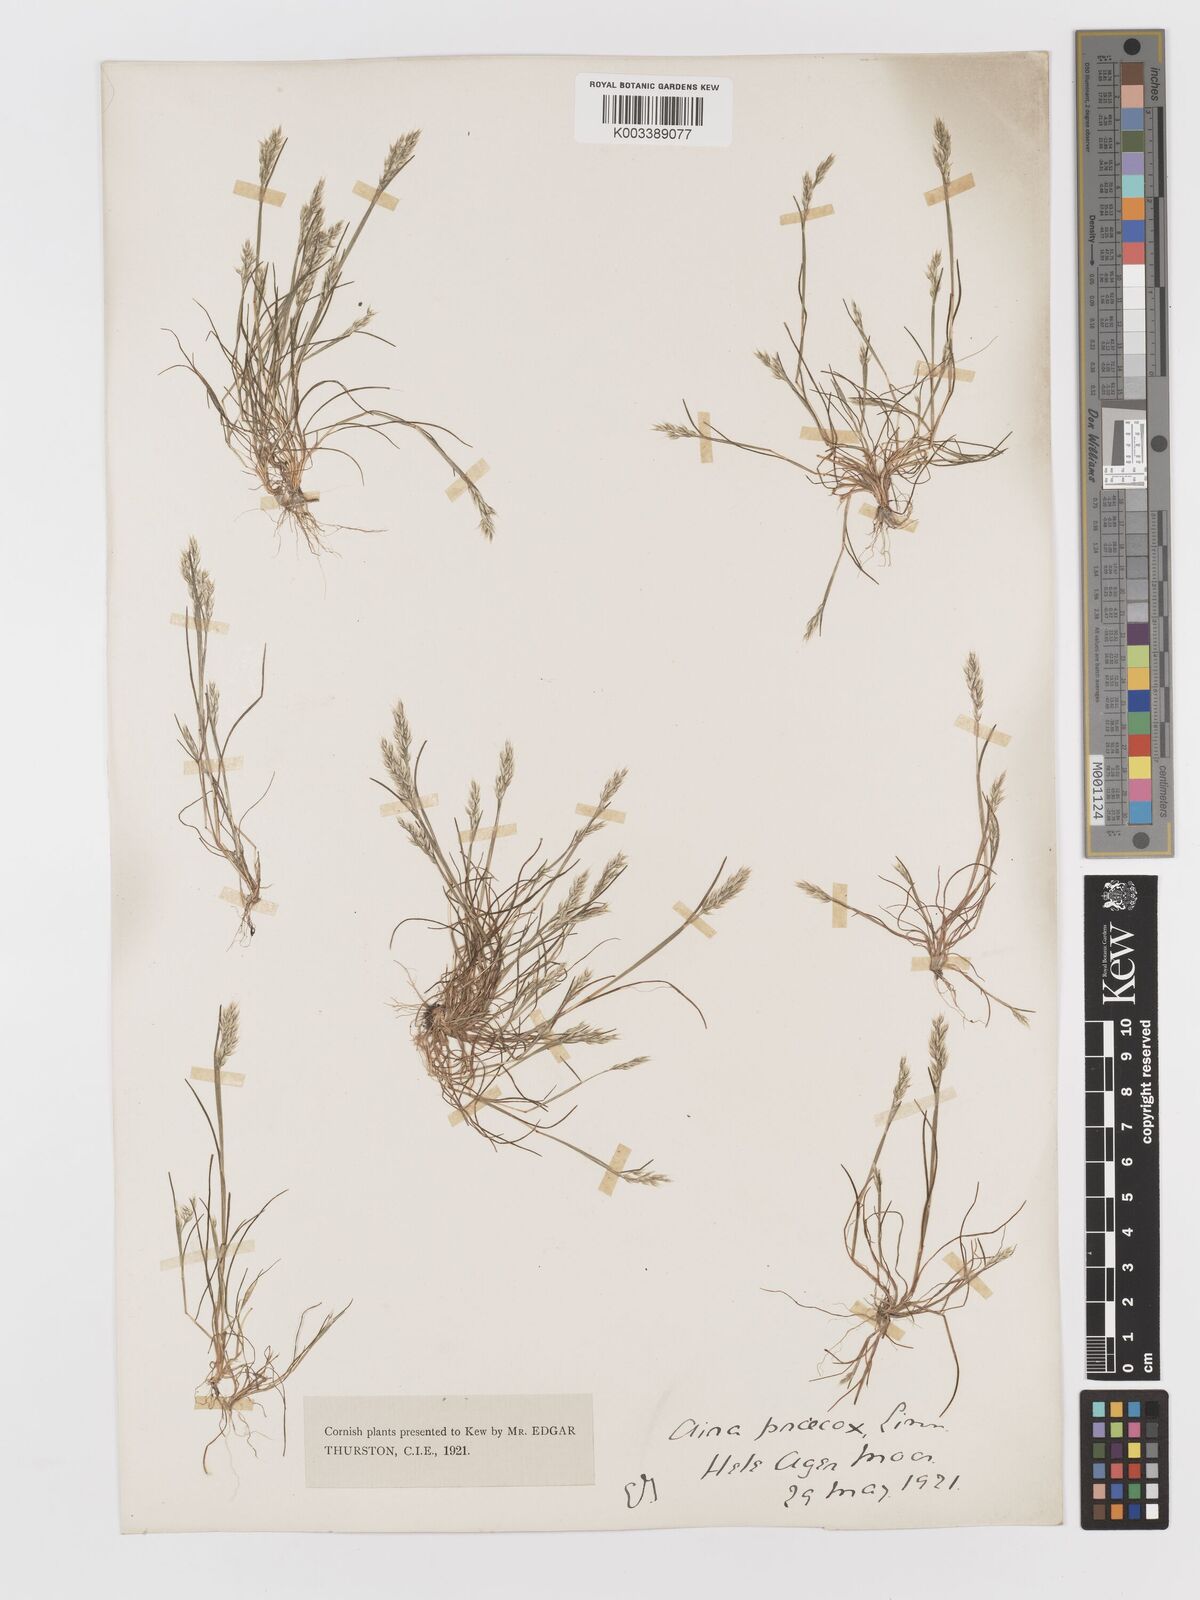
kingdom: Plantae
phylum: Tracheophyta
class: Liliopsida
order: Poales
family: Poaceae
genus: Aira
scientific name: Aira praecox
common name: Early hair-grass
